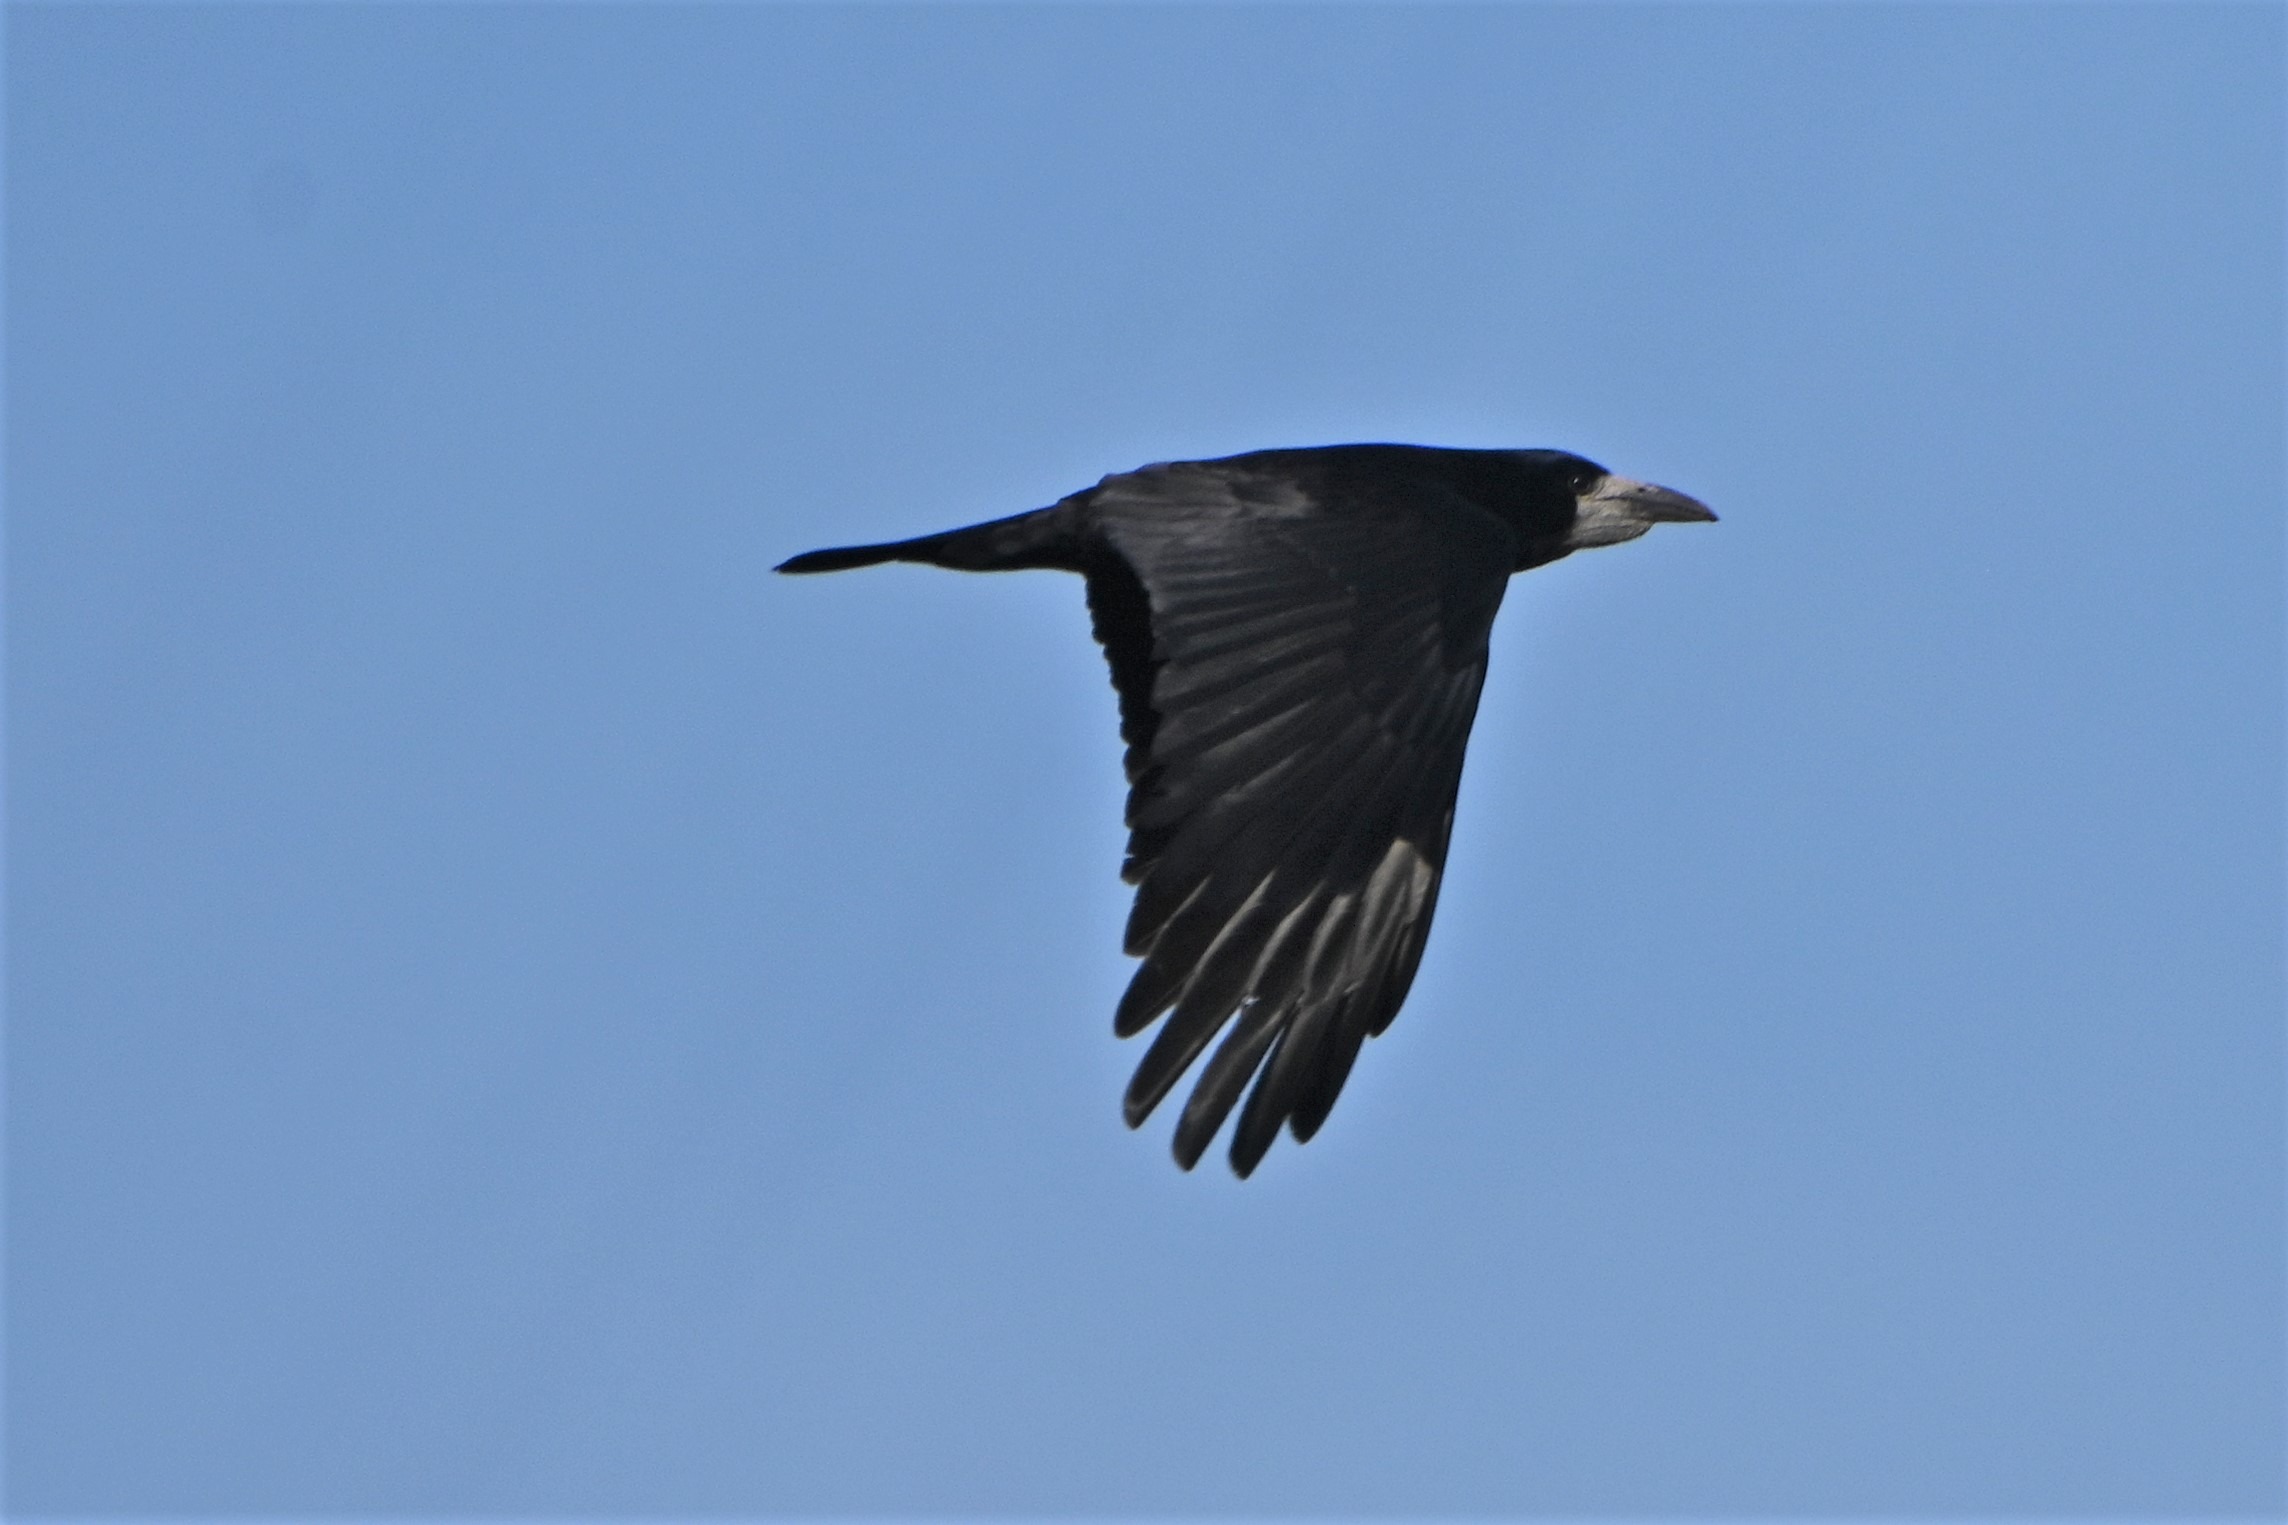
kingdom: Animalia
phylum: Chordata
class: Aves
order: Passeriformes
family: Corvidae
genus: Corvus
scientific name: Corvus frugilegus
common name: Råge
